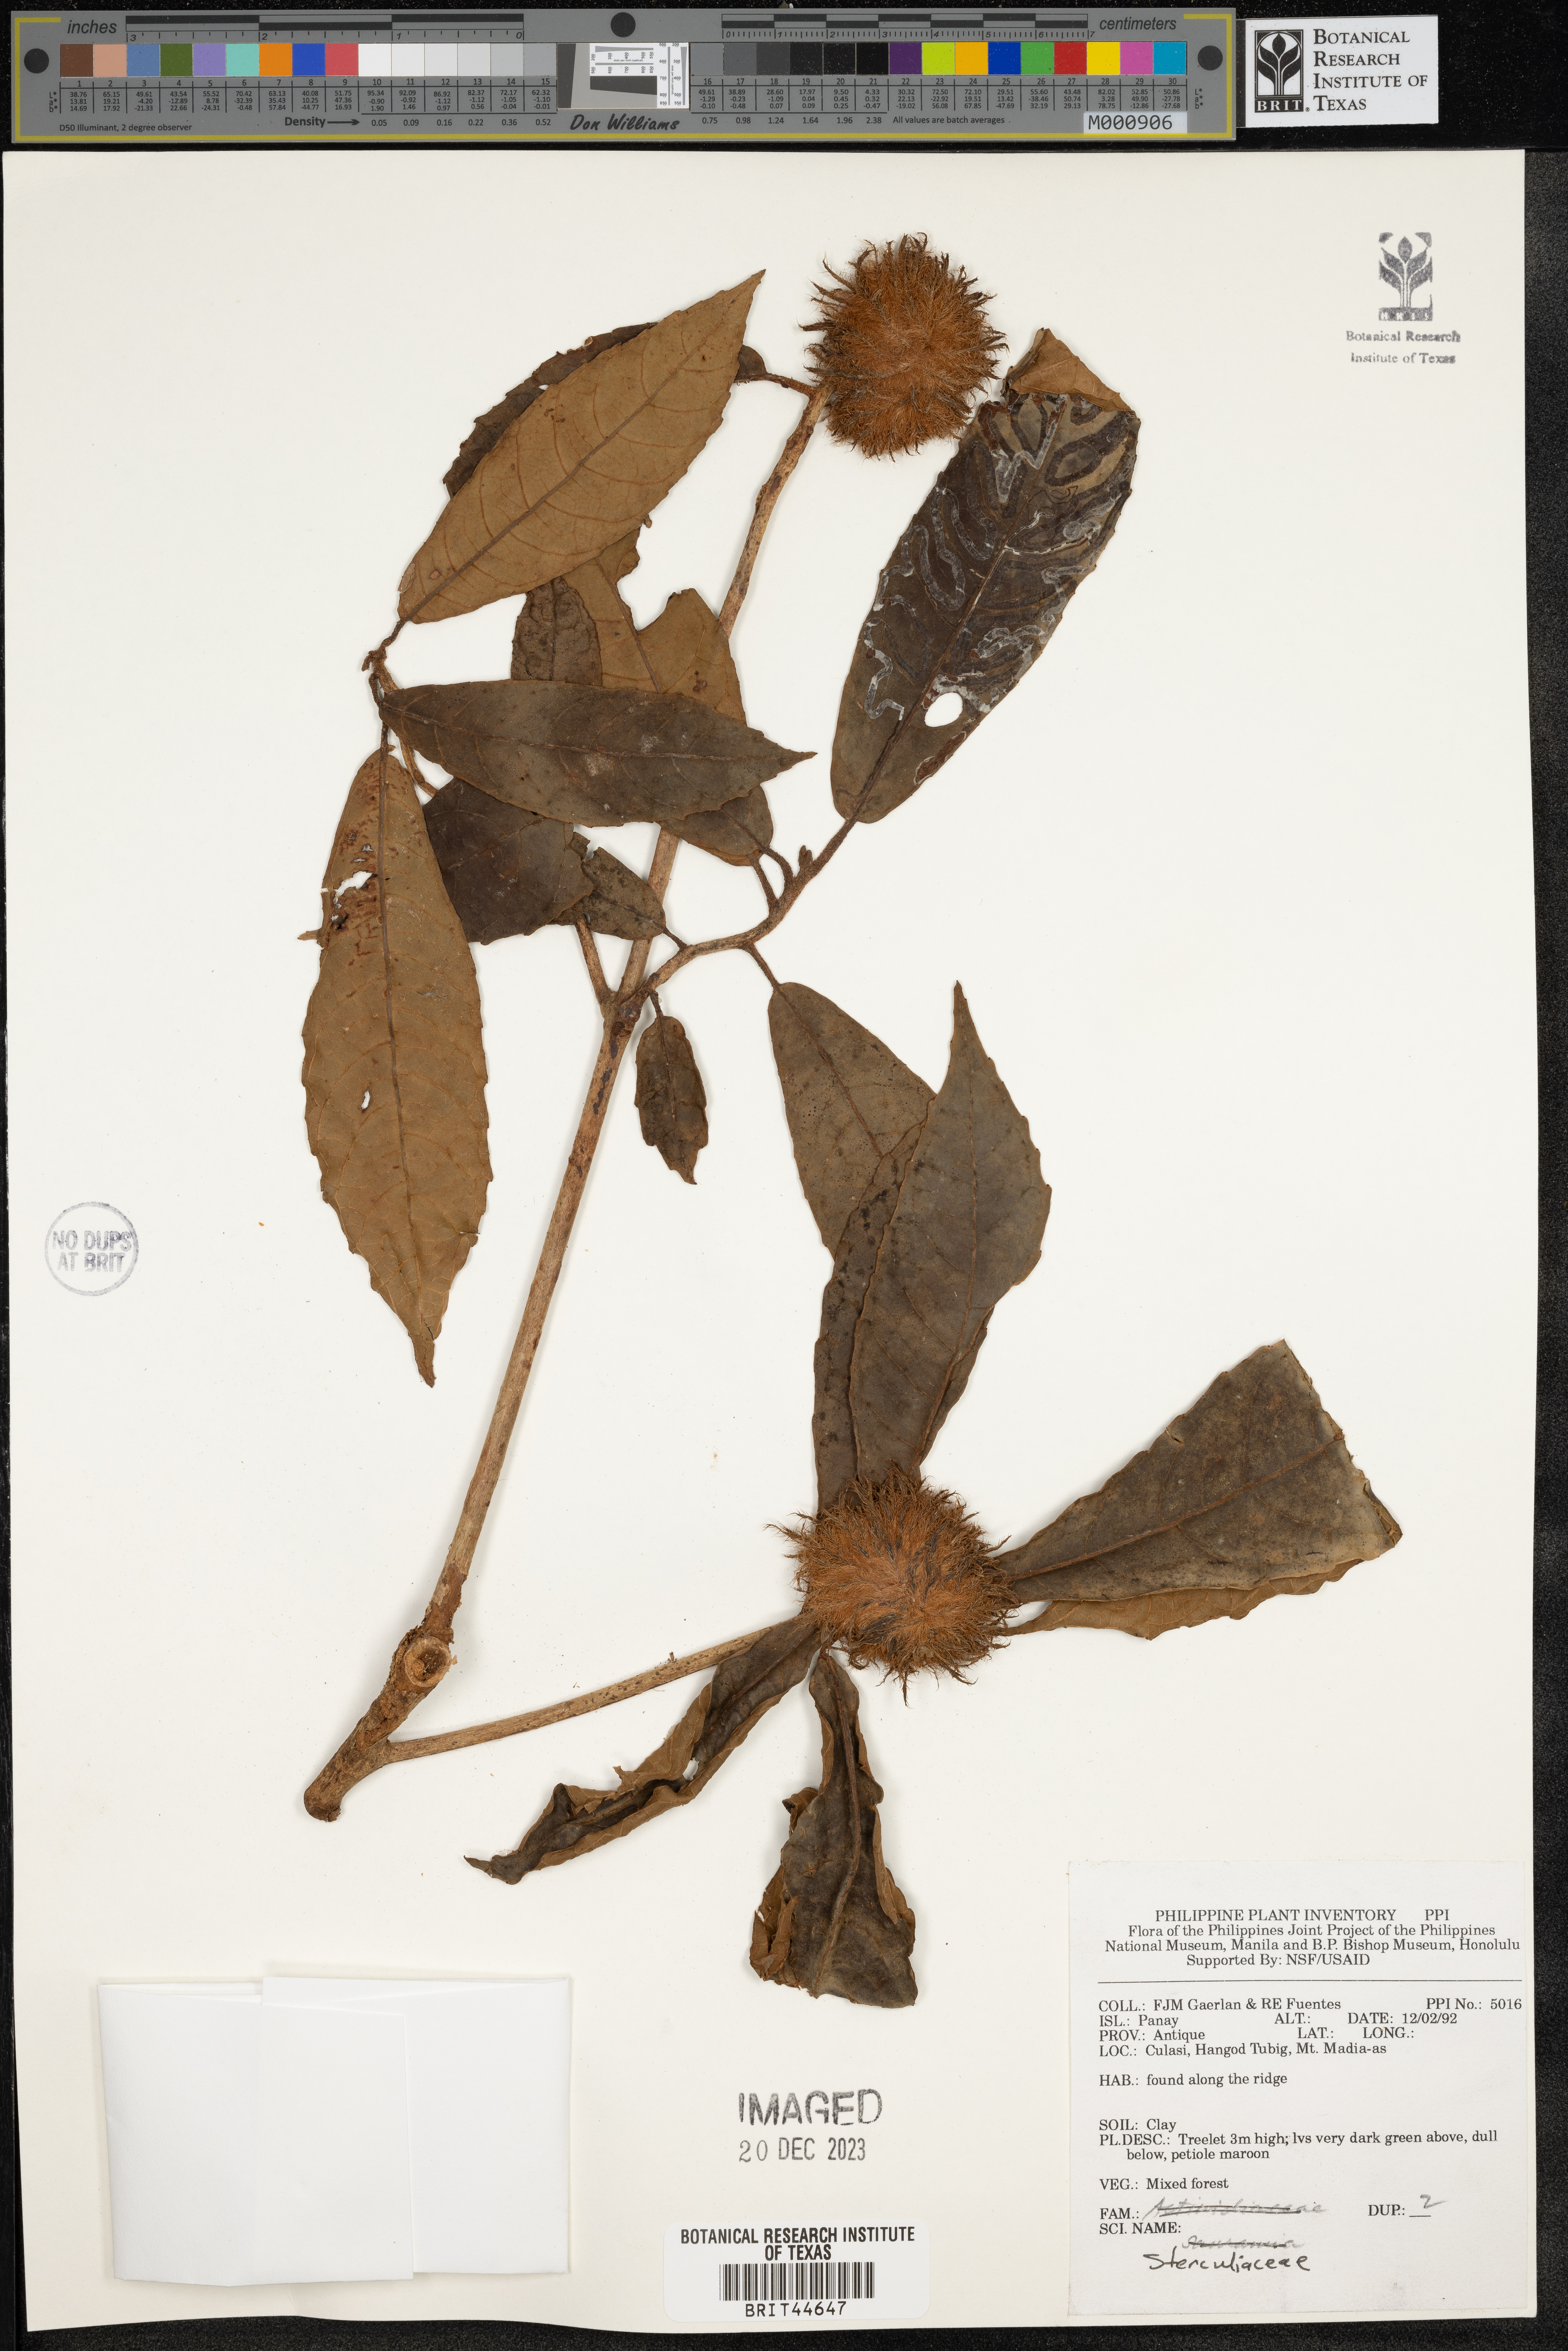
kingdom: Plantae
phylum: Tracheophyta
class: Magnoliopsida
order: Malvales
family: Sterculiaceae
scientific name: Sterculiaceae
